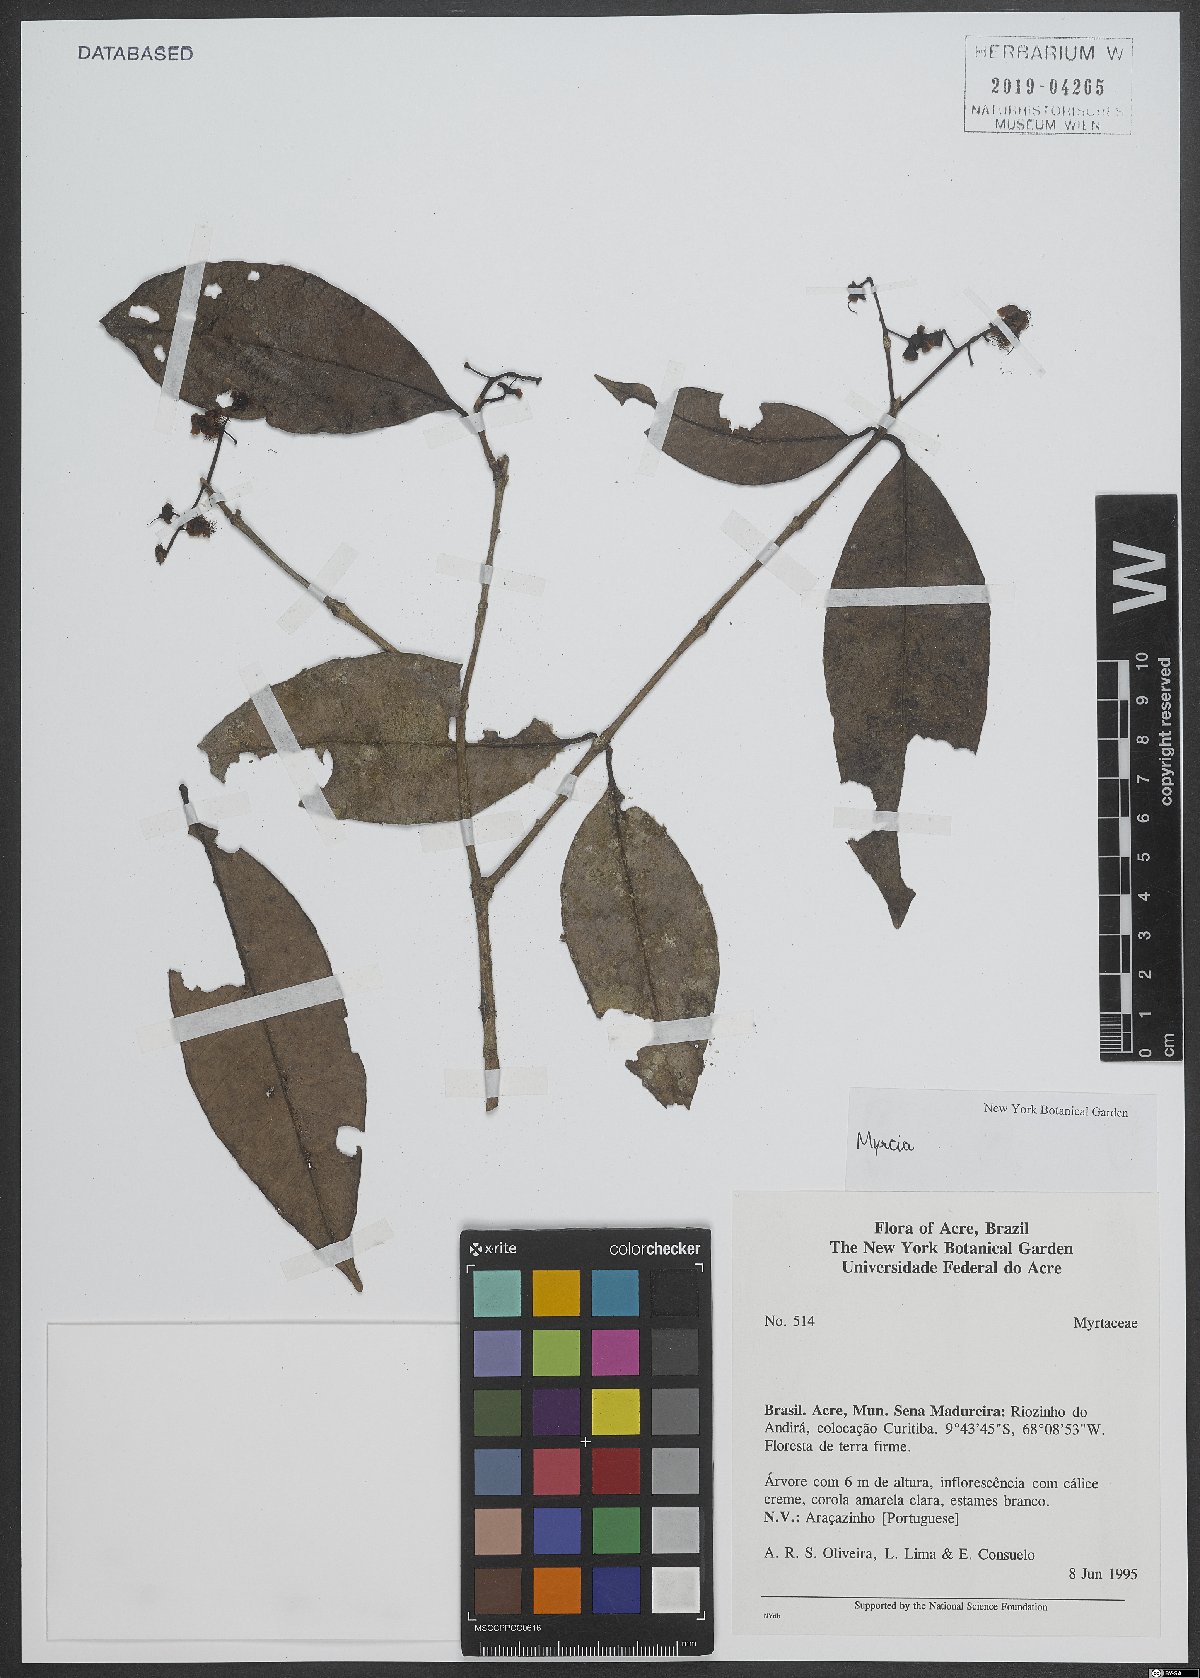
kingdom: Plantae
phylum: Tracheophyta
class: Magnoliopsida
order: Myrtales
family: Myrtaceae
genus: Myrcia
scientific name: Myrcia
